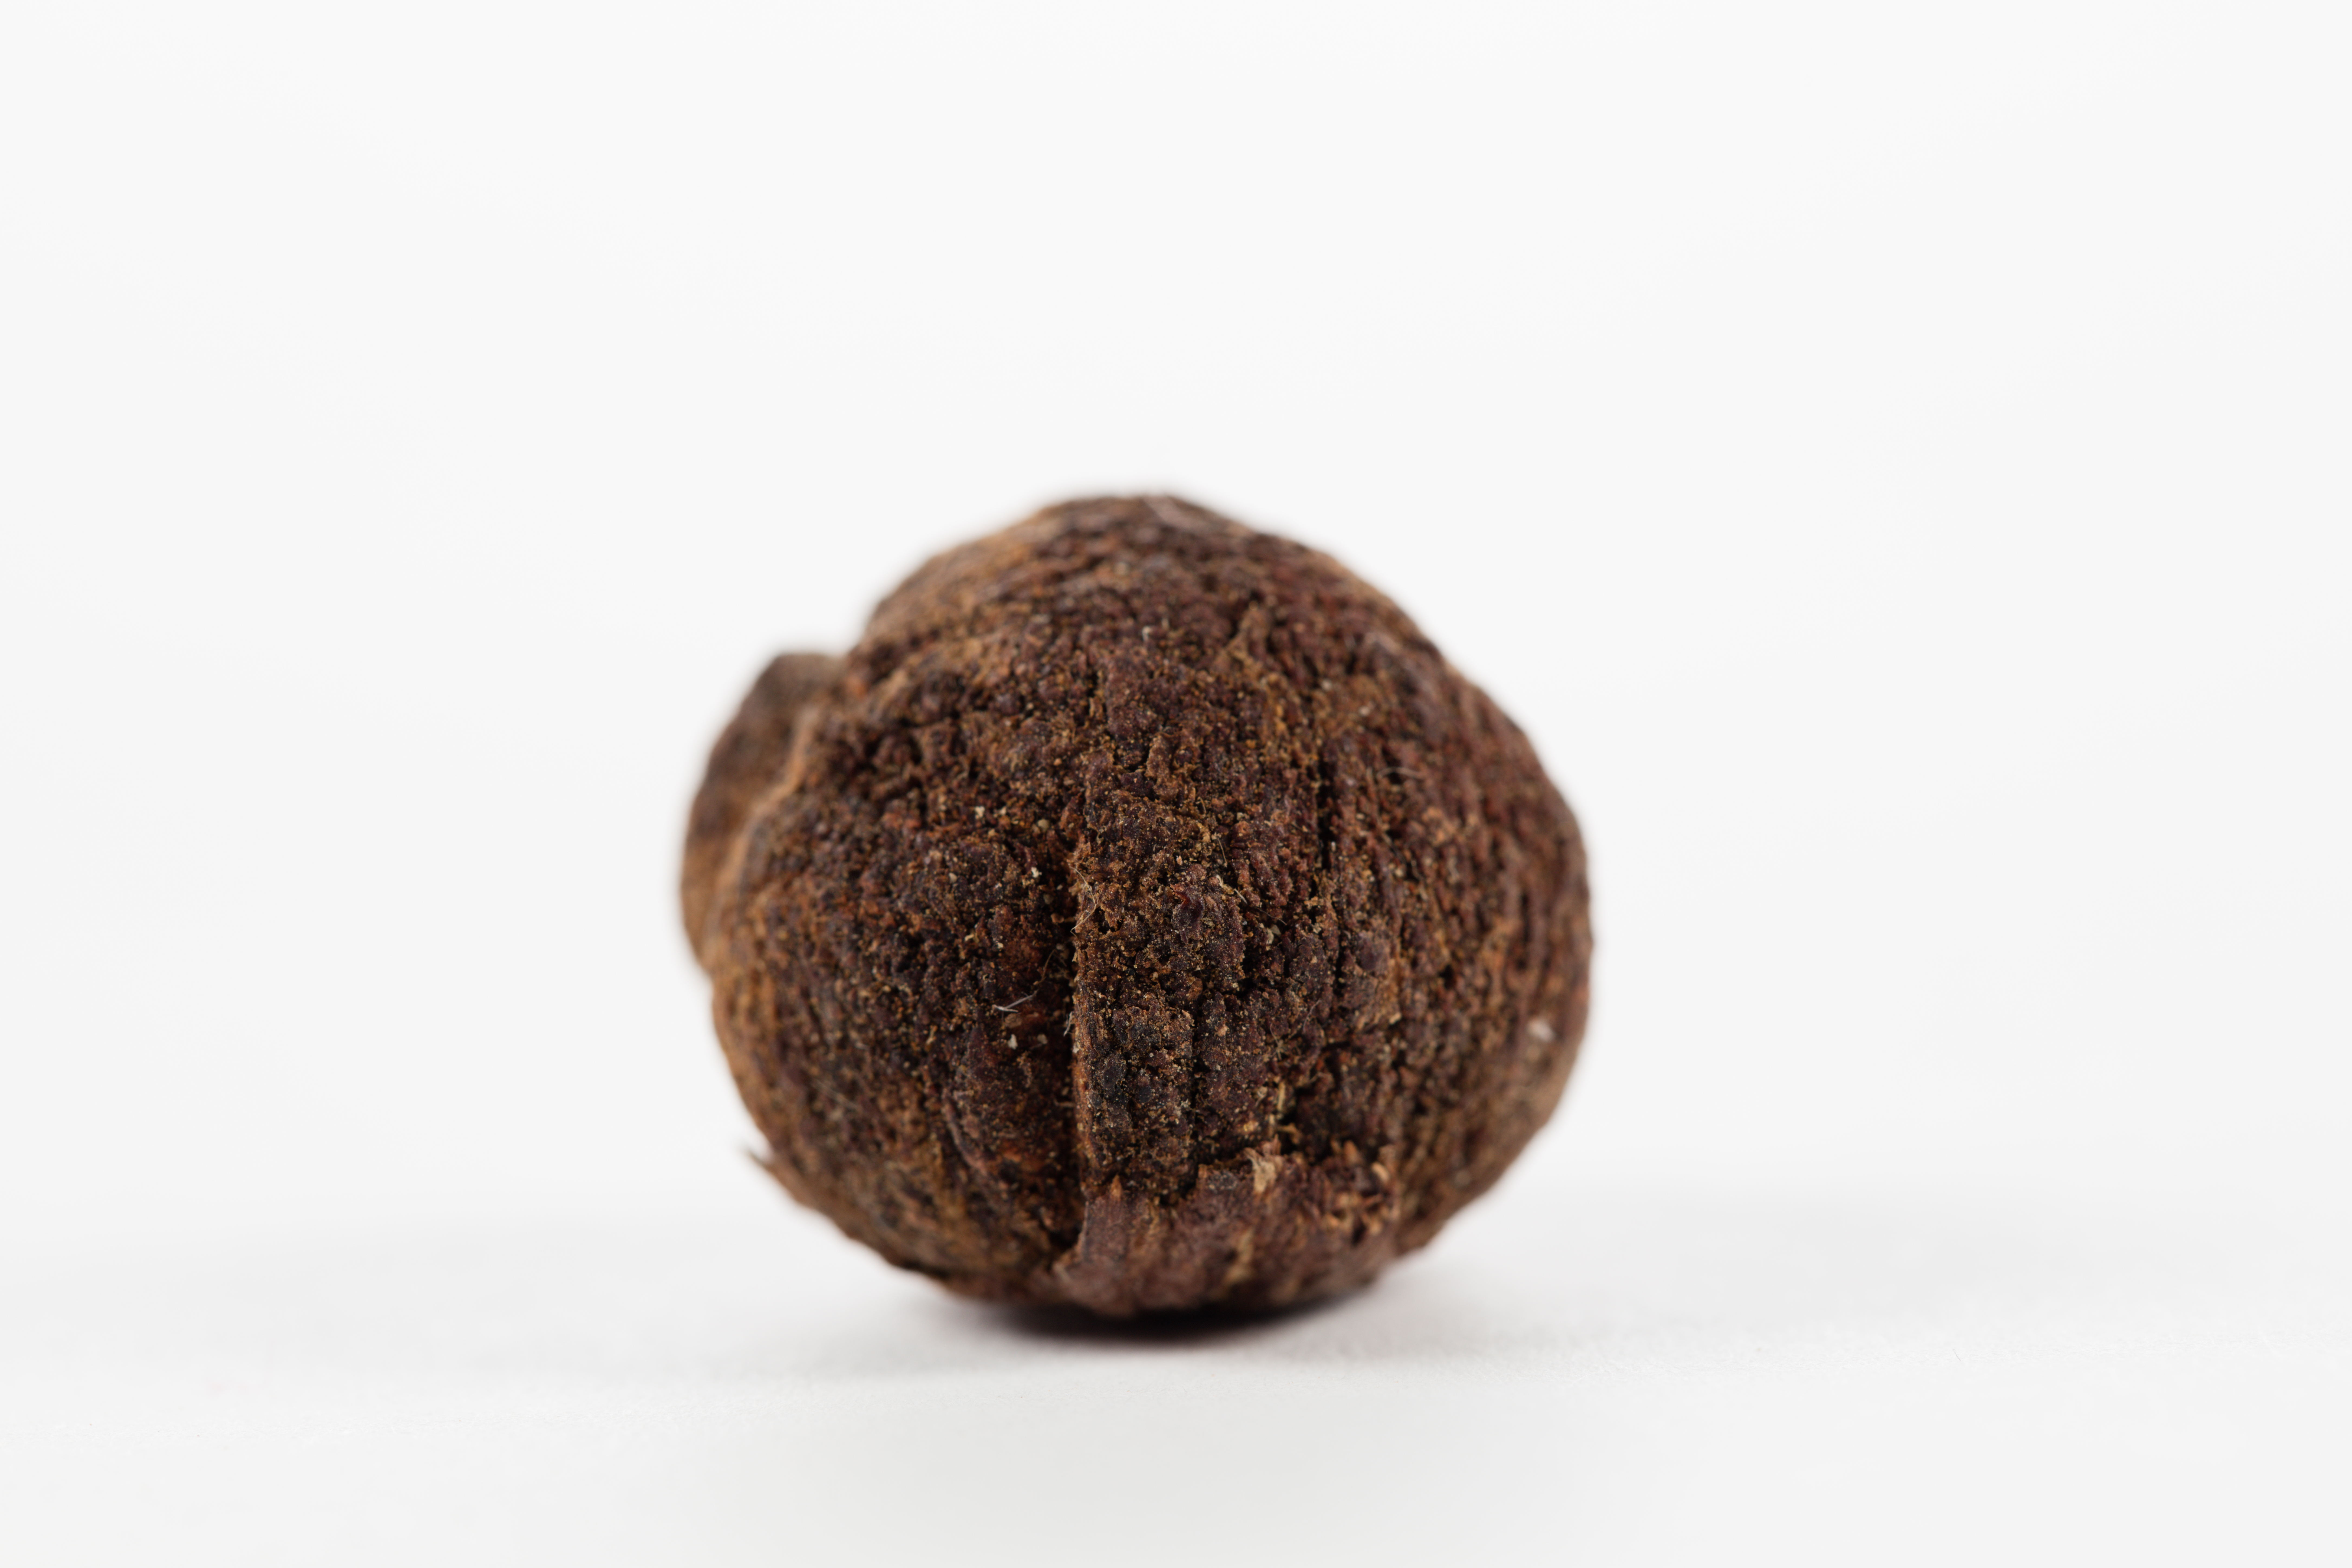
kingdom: Plantae
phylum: Tracheophyta
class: Magnoliopsida
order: Myrtales
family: Myrtaceae
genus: Syzygium
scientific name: Syzygium
